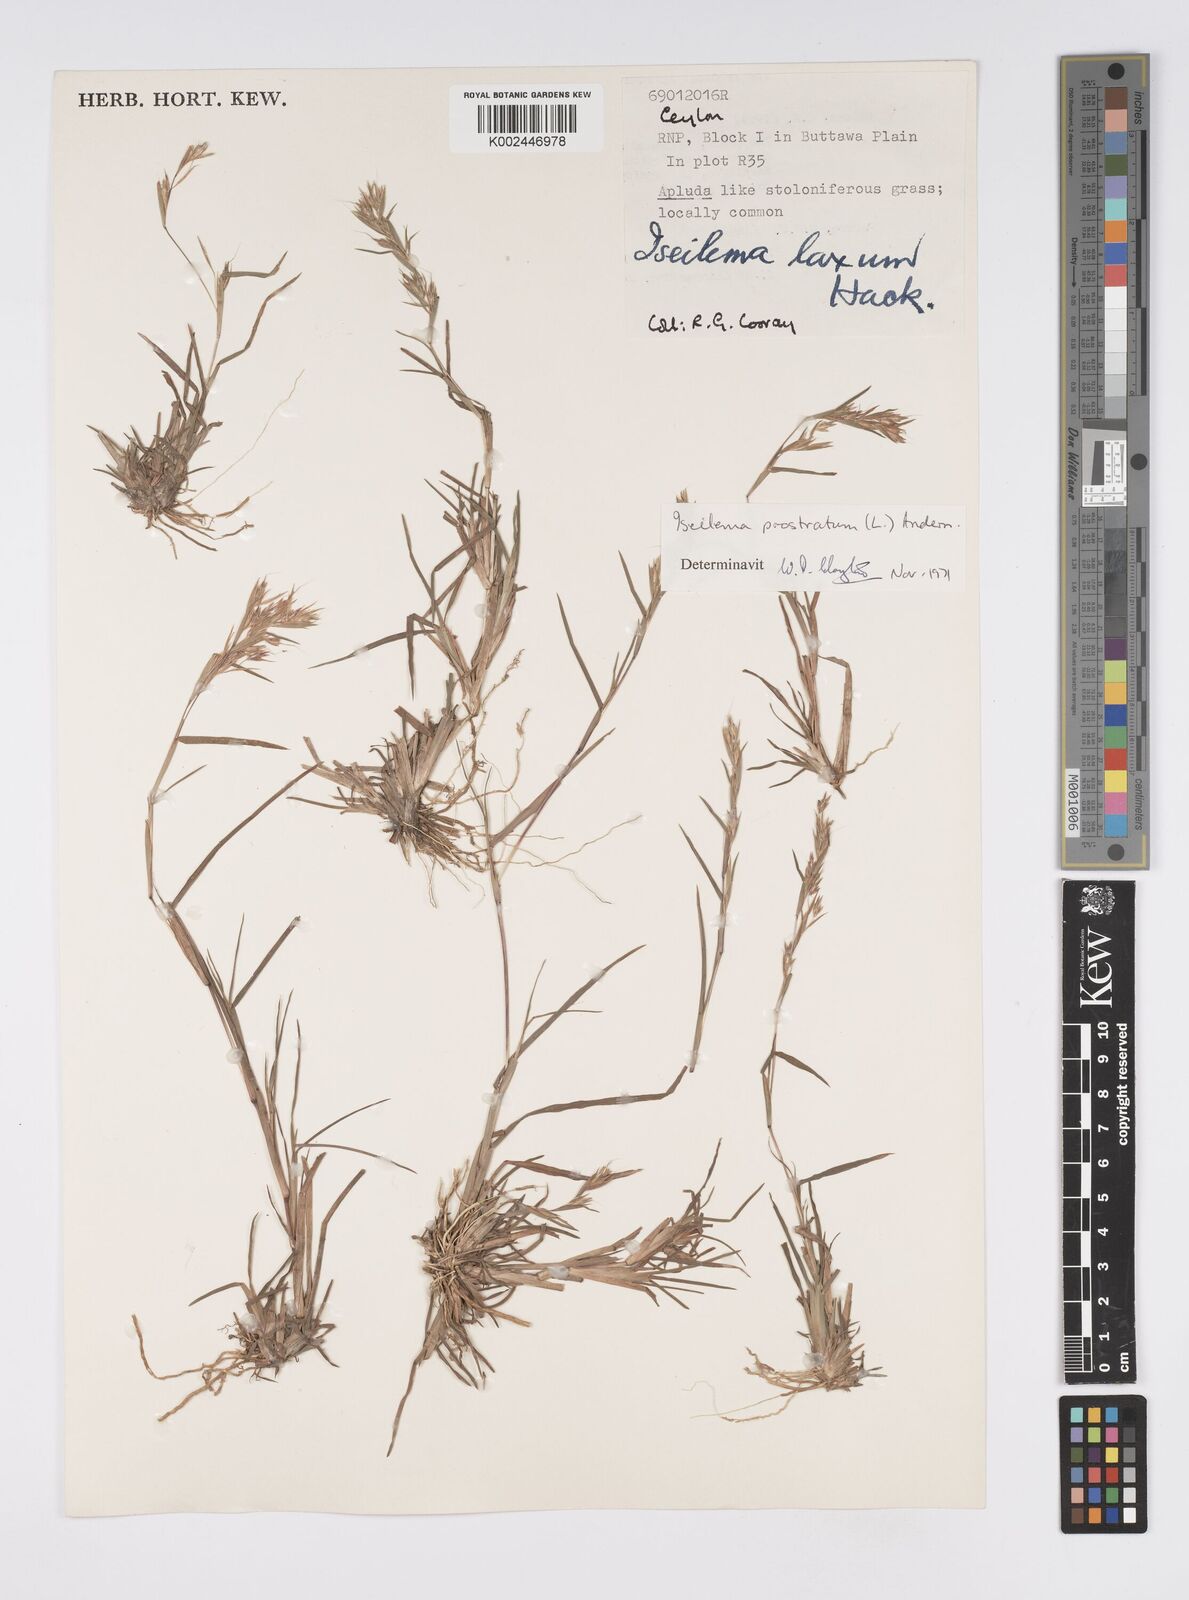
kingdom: Plantae
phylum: Tracheophyta
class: Liliopsida
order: Poales
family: Poaceae
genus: Iseilema
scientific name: Iseilema prostratum
